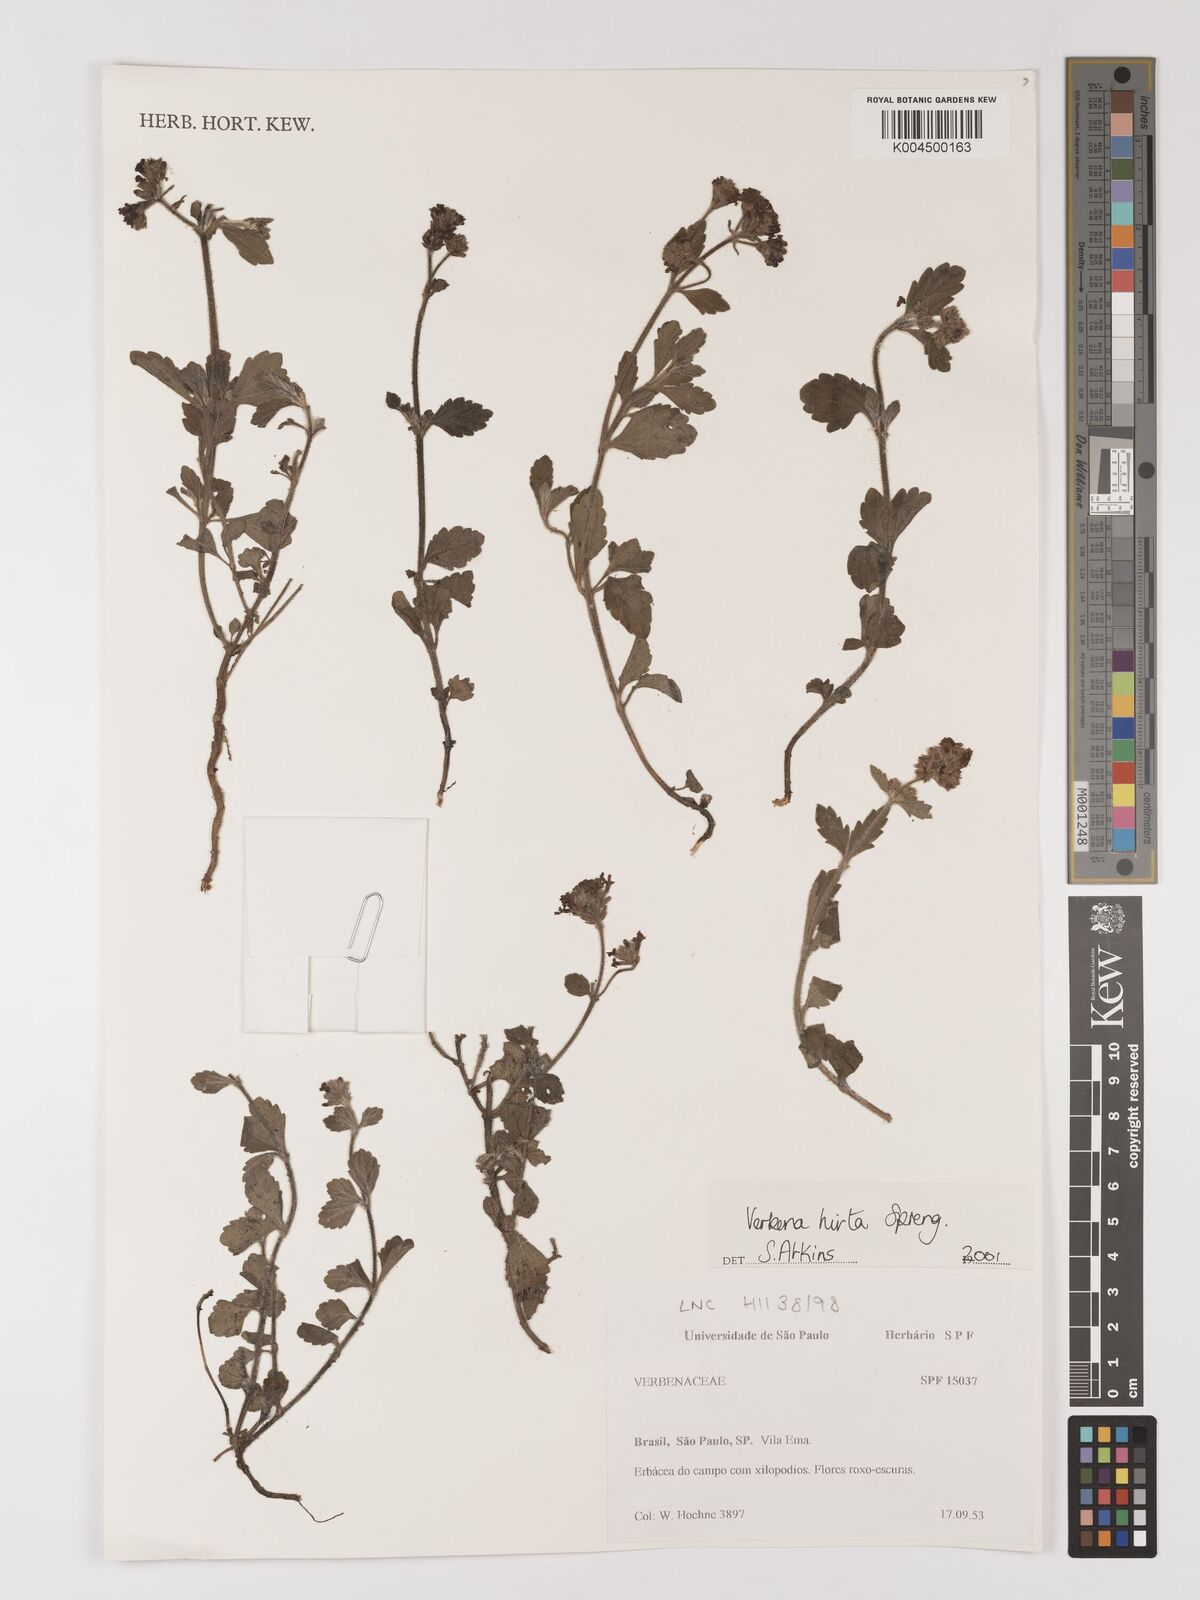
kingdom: Plantae
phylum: Tracheophyta
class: Magnoliopsida
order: Lamiales
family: Verbenaceae
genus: Verbena
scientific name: Verbena hirta
